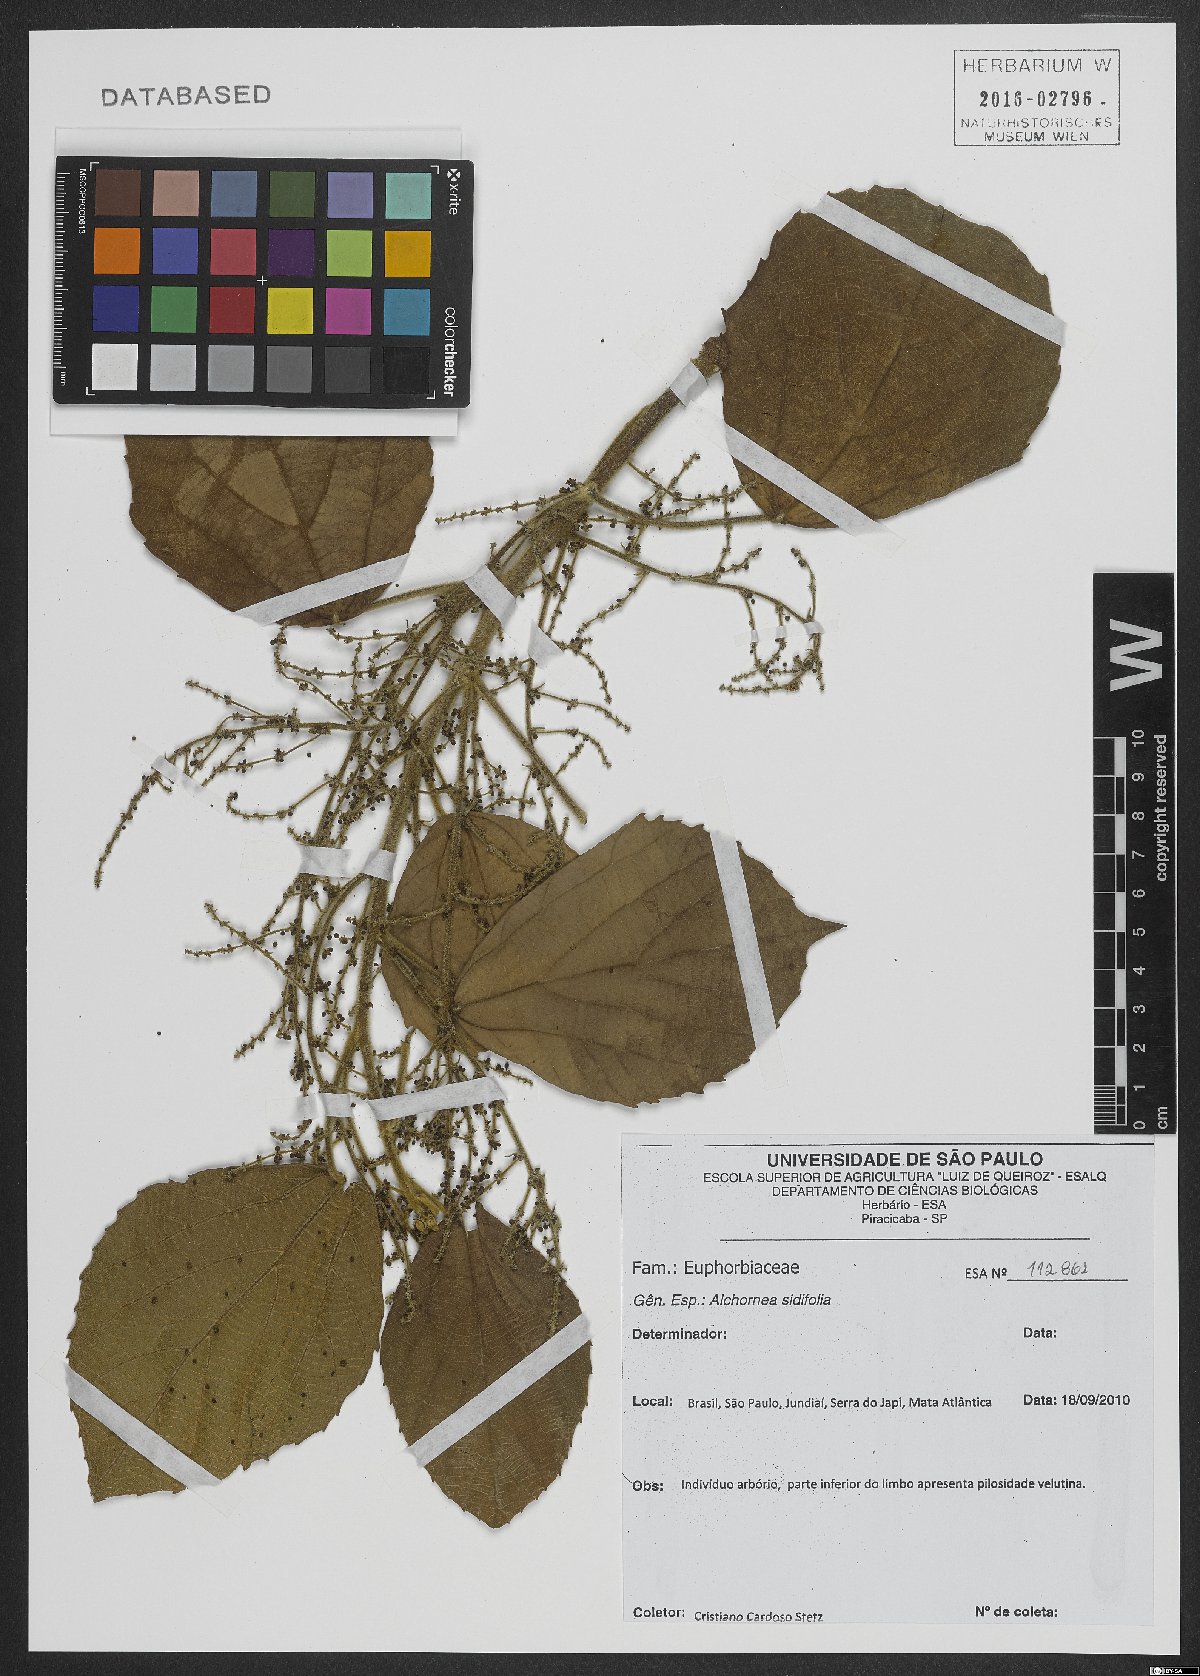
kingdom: Plantae
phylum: Tracheophyta
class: Magnoliopsida
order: Malpighiales
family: Euphorbiaceae
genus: Alchornea
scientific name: Alchornea sidifolia
